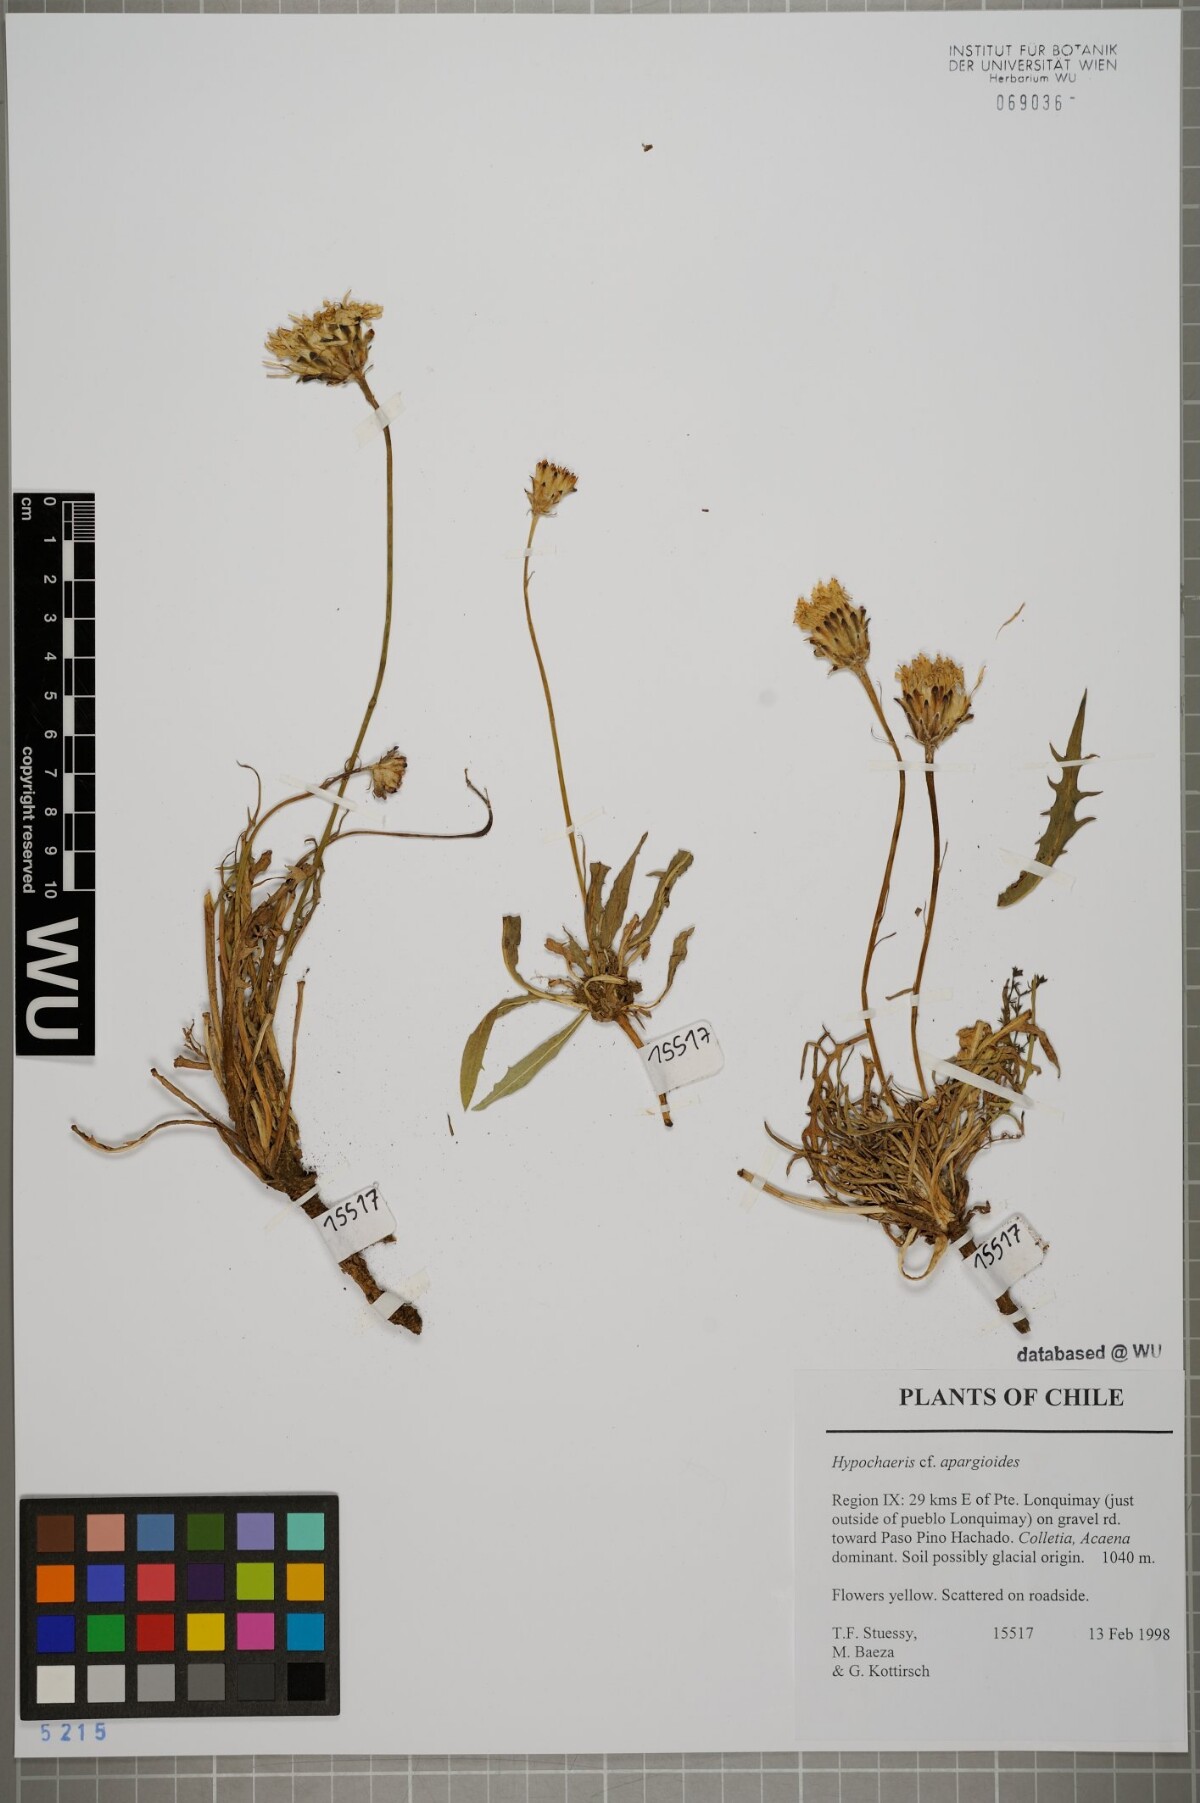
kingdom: Plantae
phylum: Tracheophyta
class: Magnoliopsida
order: Asterales
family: Asteraceae
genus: Hypochaeris
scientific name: Hypochaeris apargioides
